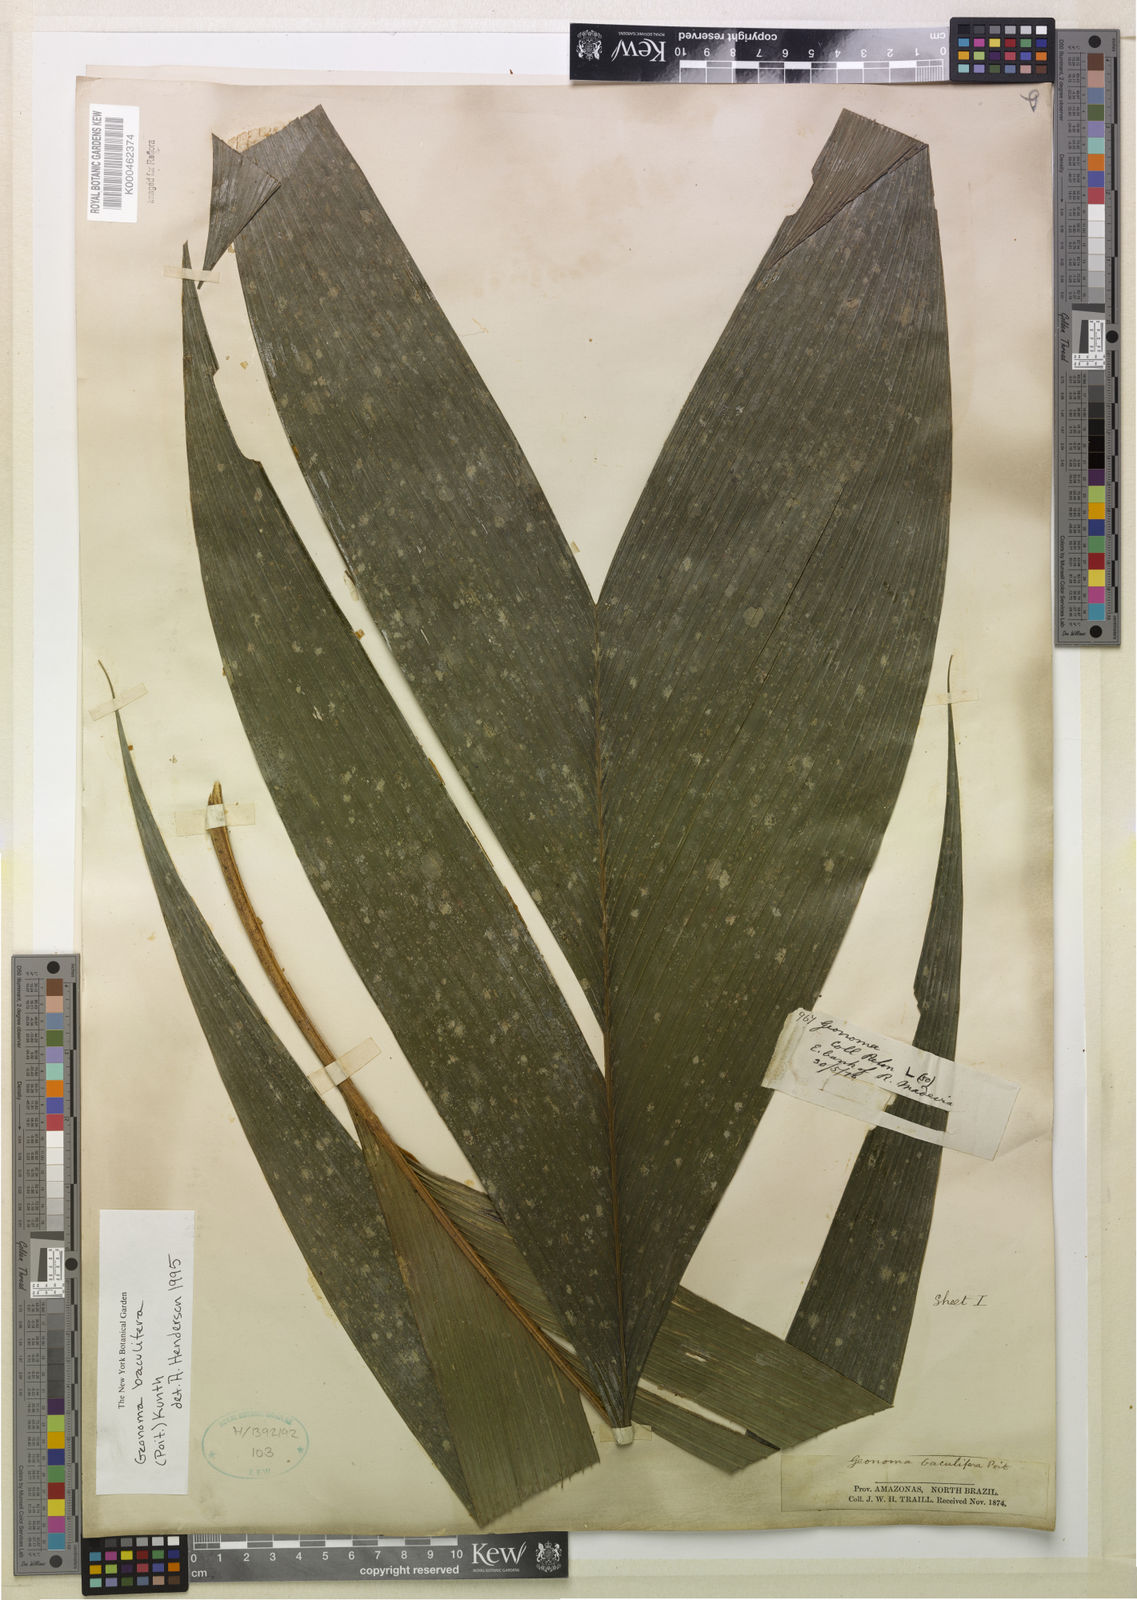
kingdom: Plantae
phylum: Tracheophyta
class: Liliopsida
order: Arecales
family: Arecaceae
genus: Geonoma
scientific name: Geonoma baculifera
